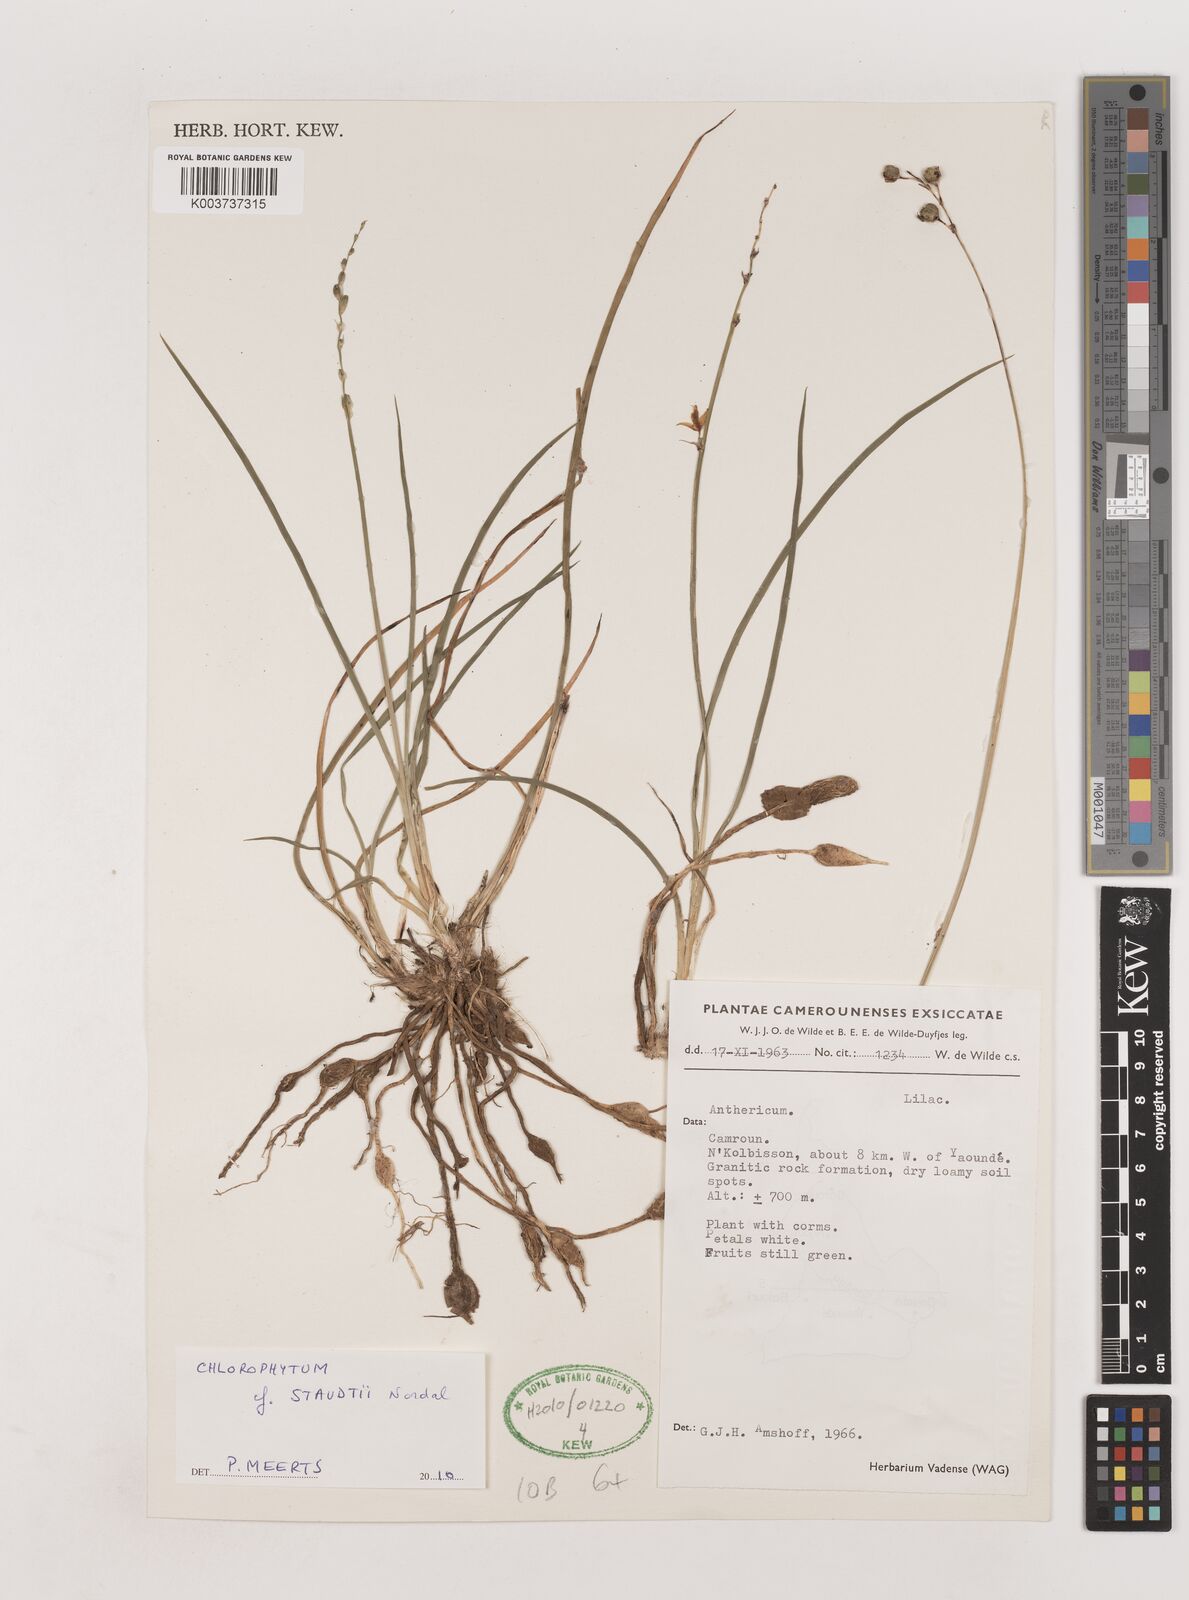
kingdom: Plantae
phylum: Tracheophyta
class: Liliopsida
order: Asparagales
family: Asparagaceae
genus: Chlorophytum
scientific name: Chlorophytum staudtii
